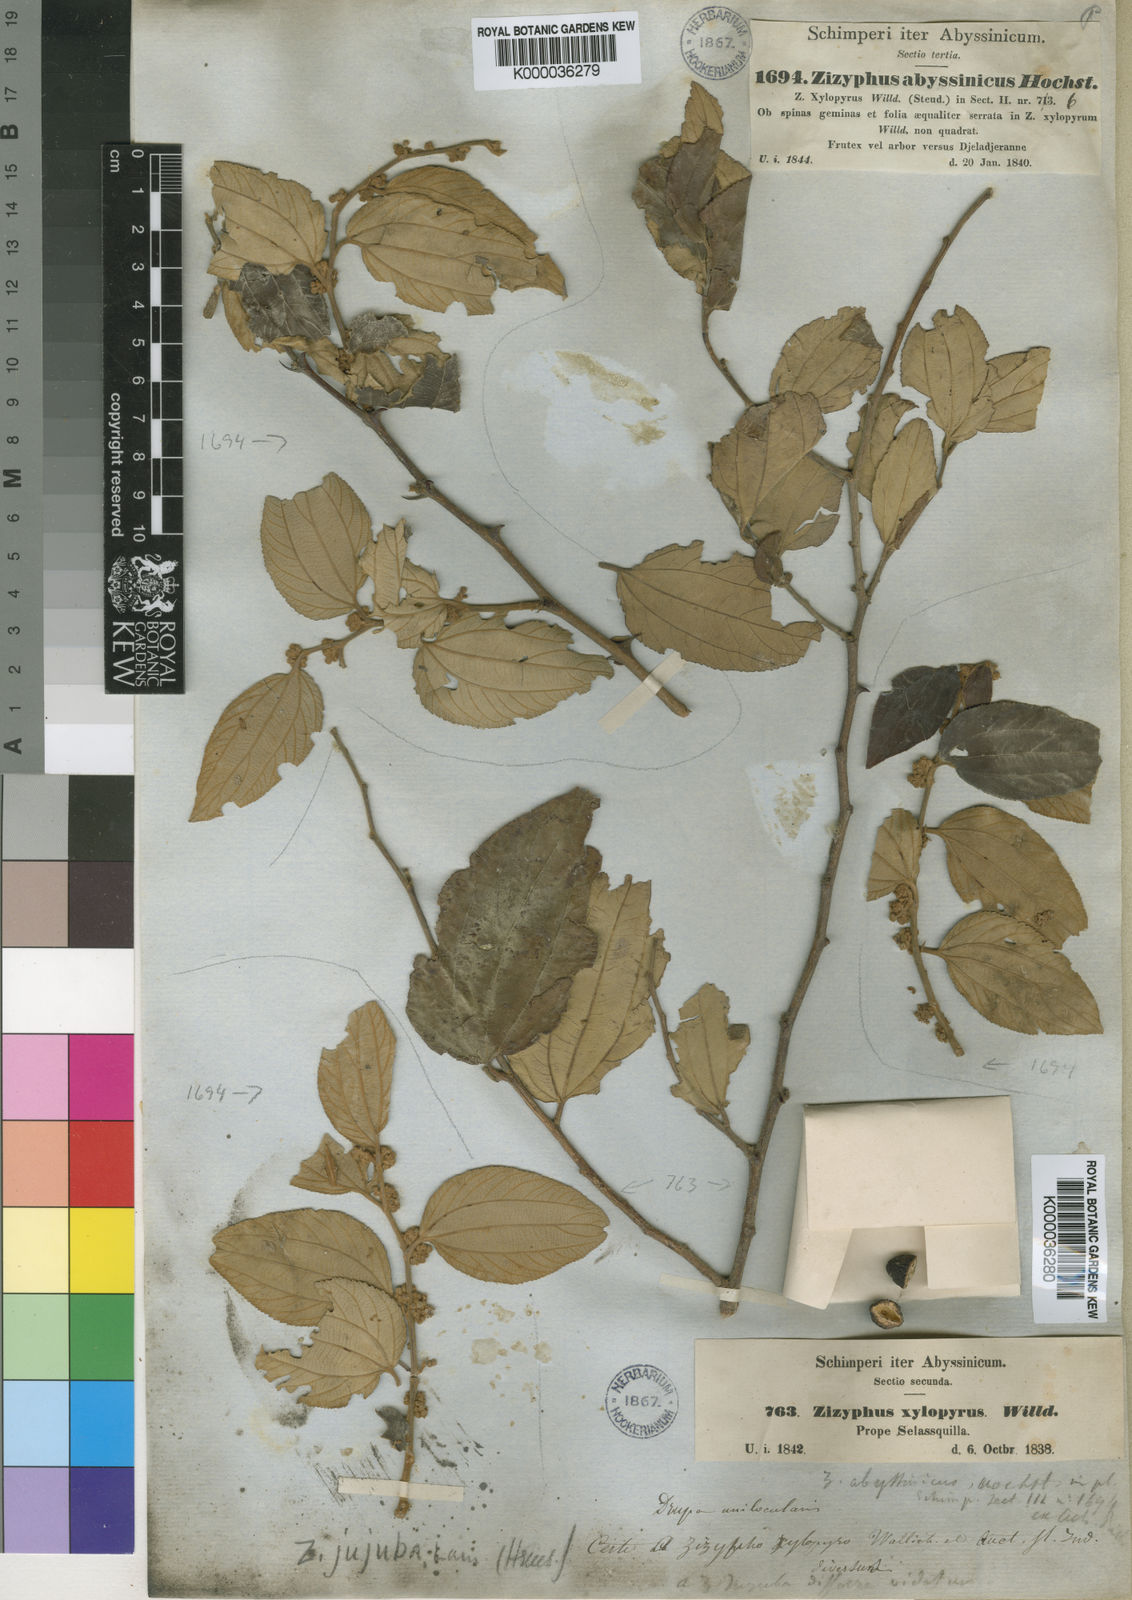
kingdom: Plantae
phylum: Tracheophyta
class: Magnoliopsida
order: Rosales
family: Rhamnaceae
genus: Ziziphus
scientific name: Ziziphus abyssinica
